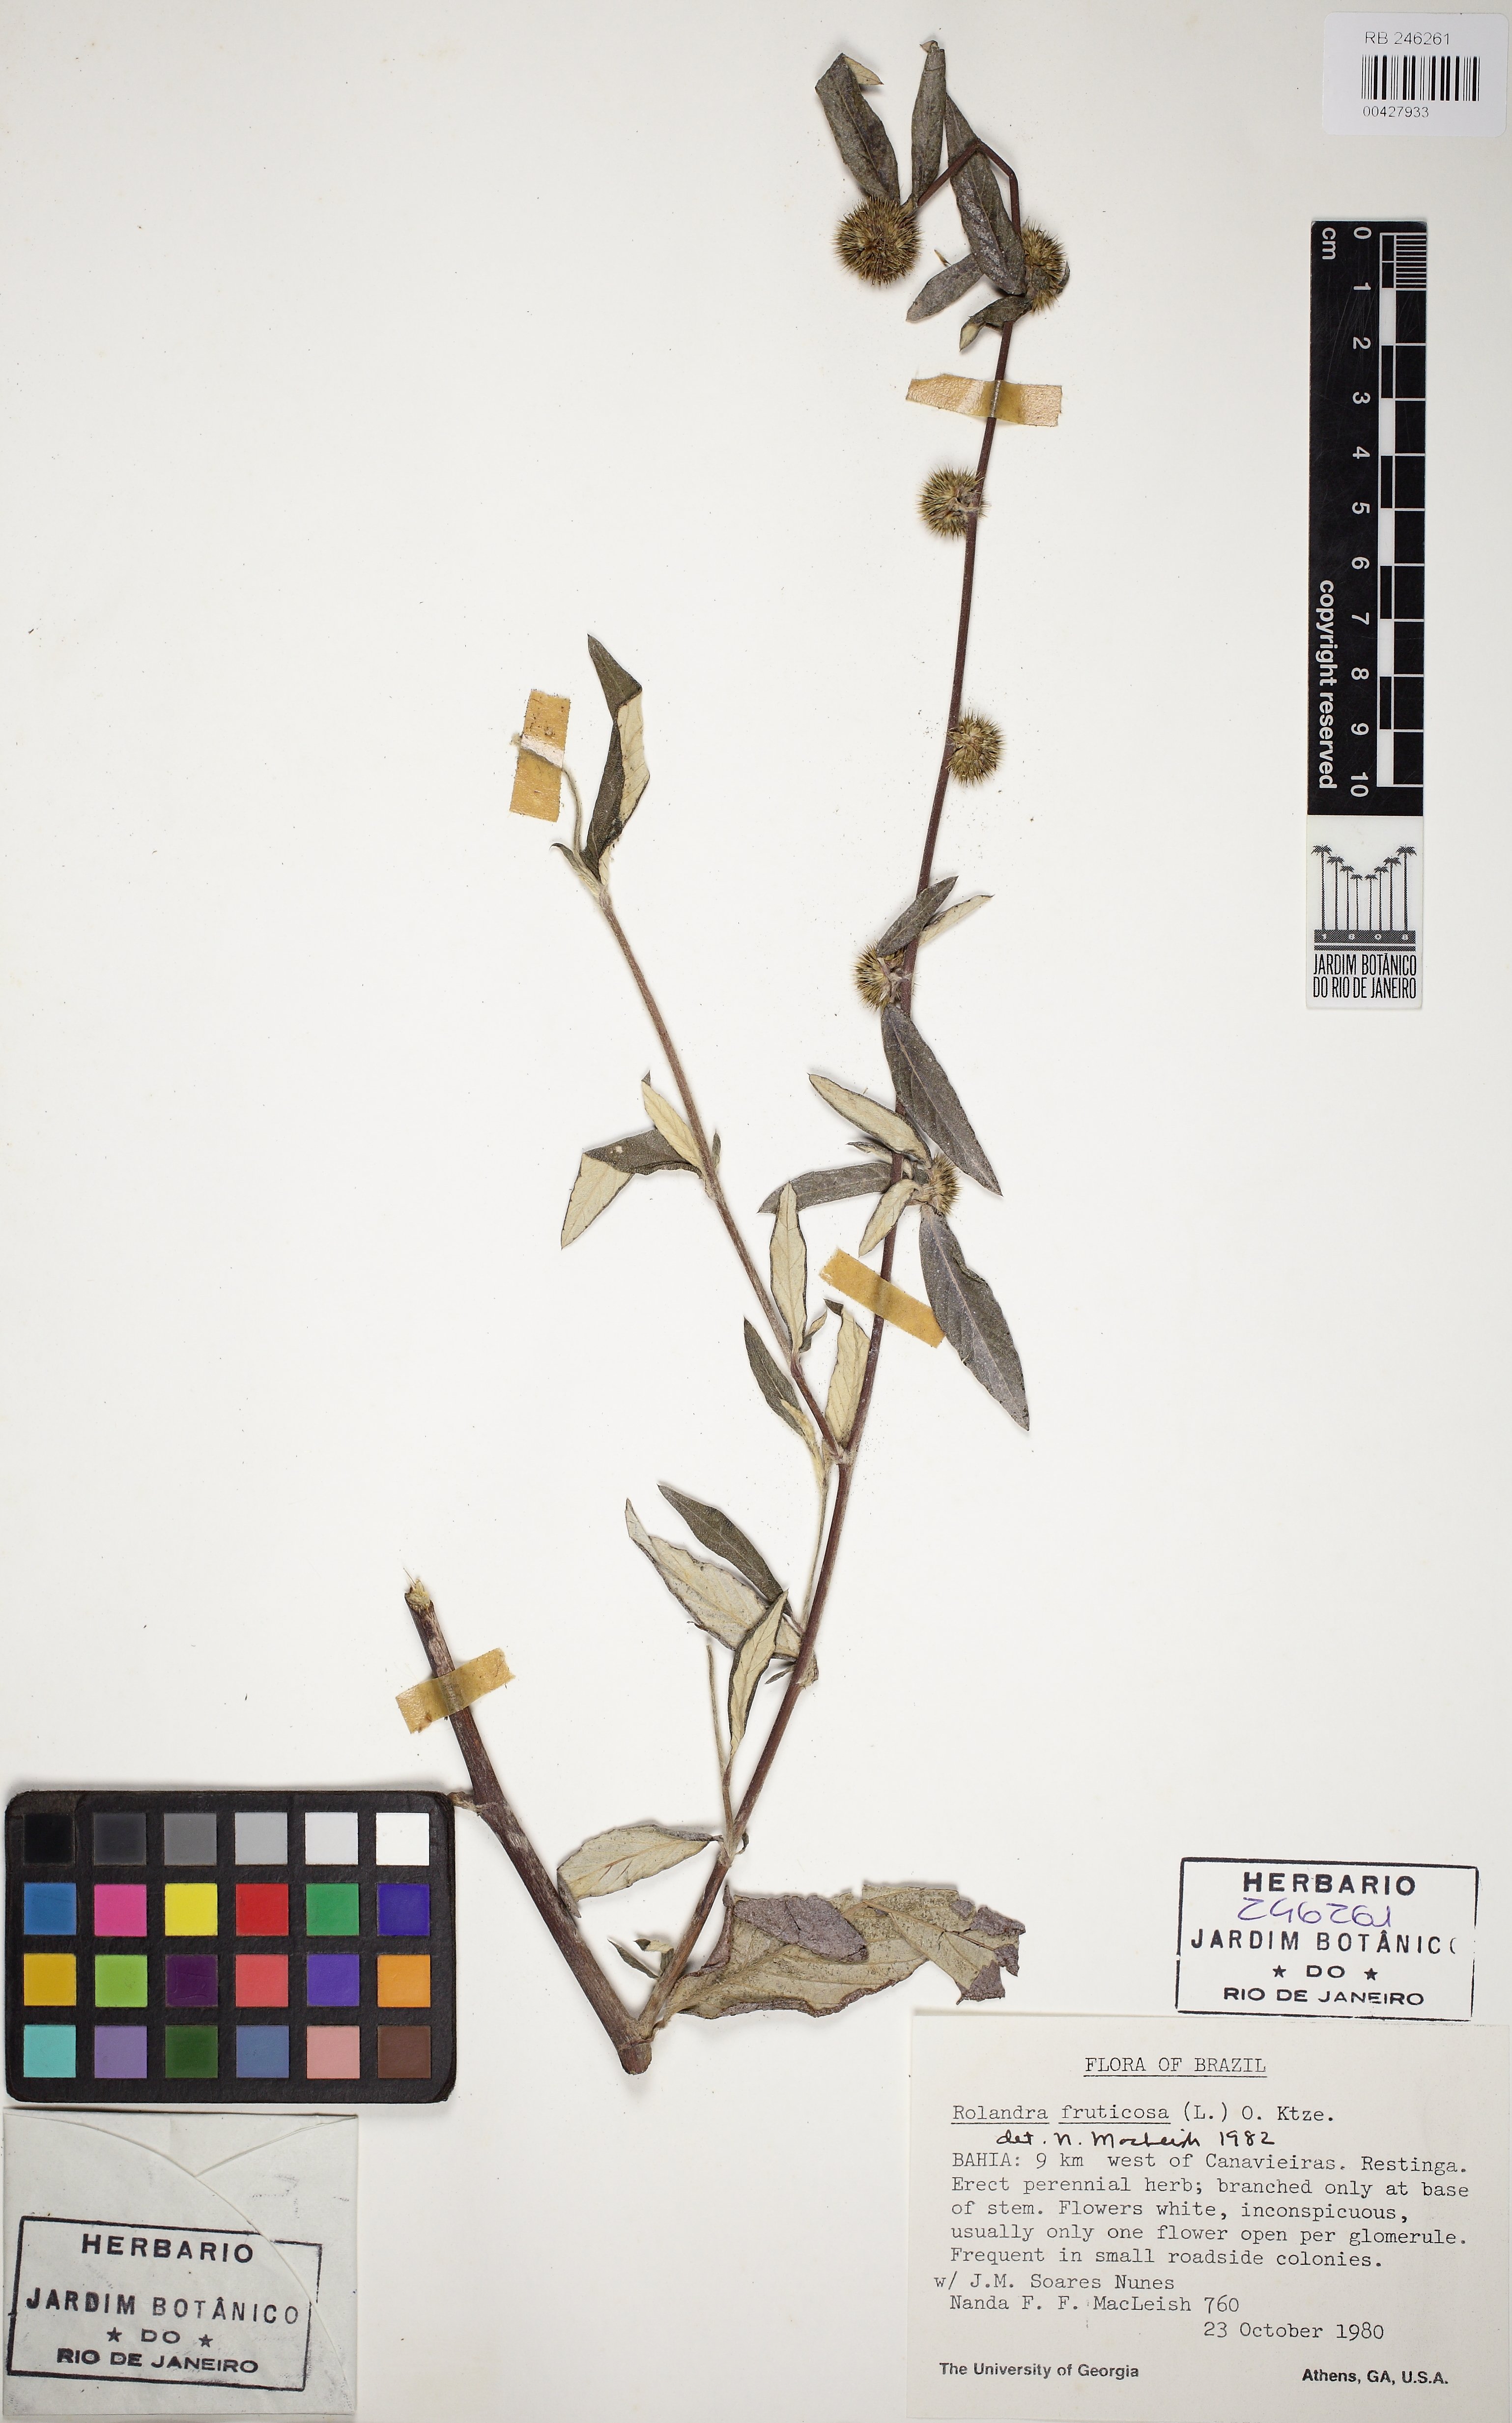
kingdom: Plantae
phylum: Tracheophyta
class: Magnoliopsida
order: Asterales
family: Asteraceae
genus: Rolandra
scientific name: Rolandra fruticosa
